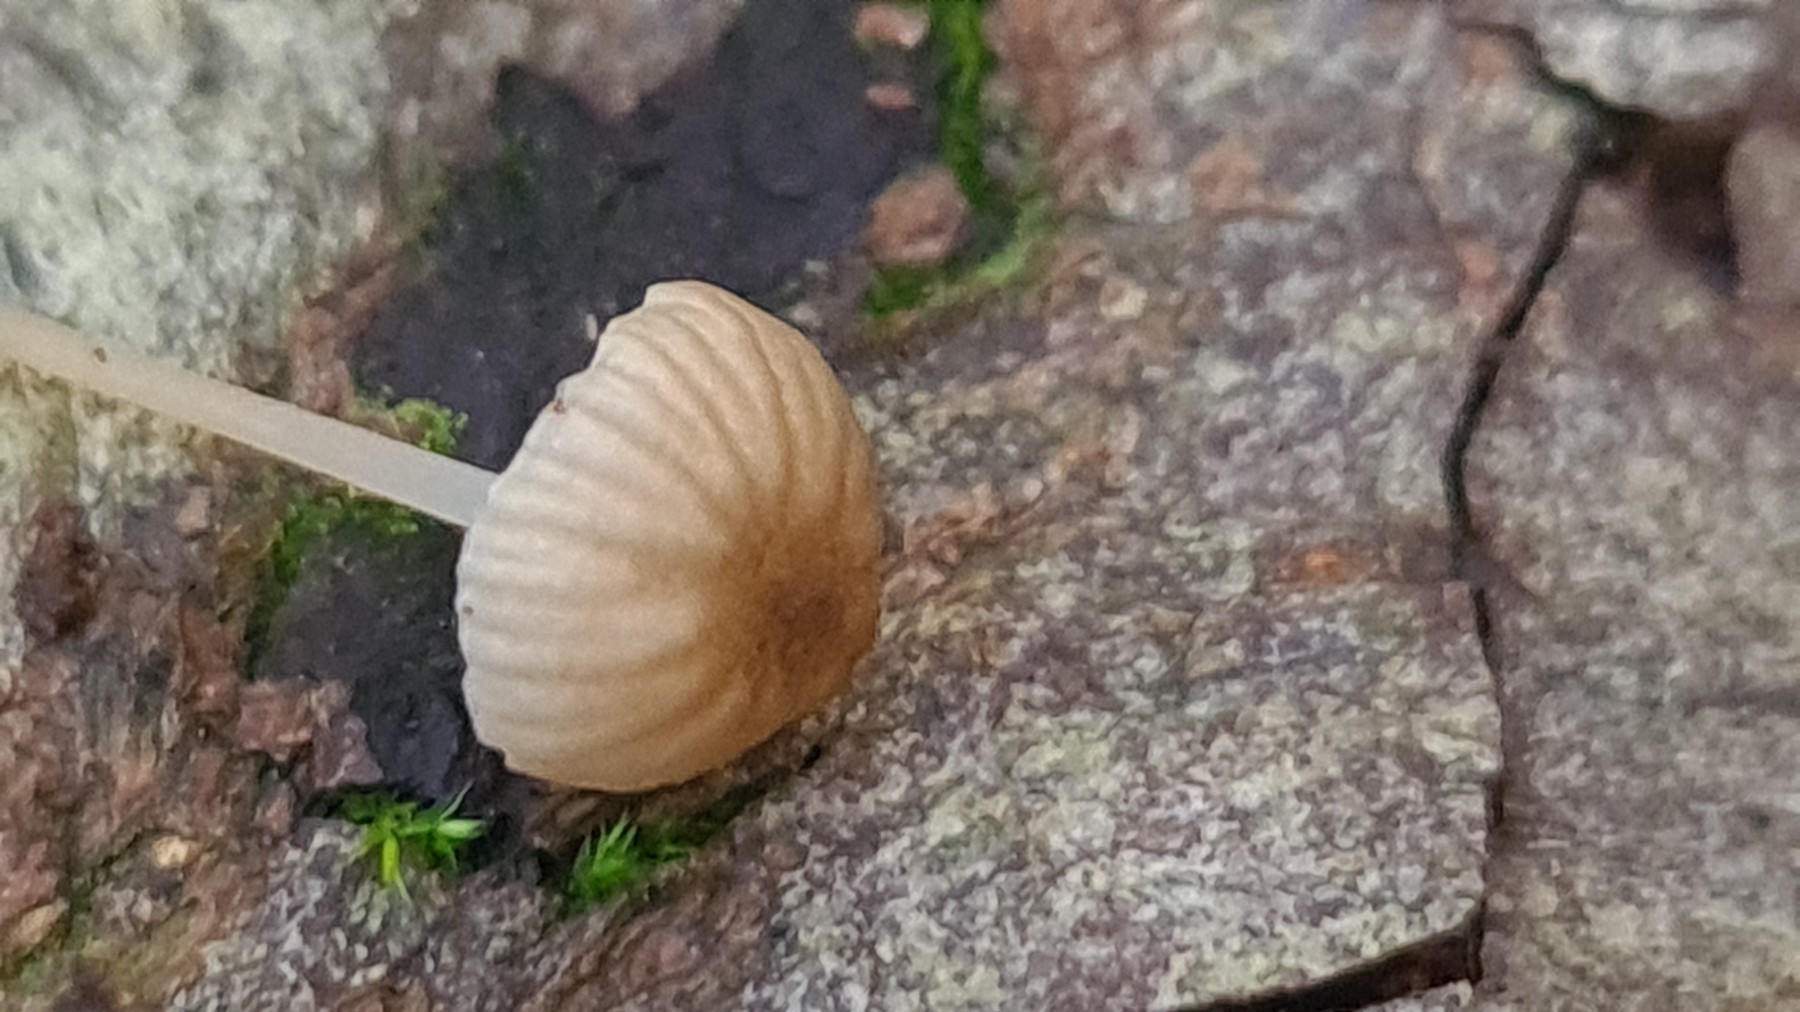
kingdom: Fungi
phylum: Basidiomycota
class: Agaricomycetes
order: Agaricales
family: Porotheleaceae
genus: Phloeomana
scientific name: Phloeomana speirea
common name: kvist-huesvamp
